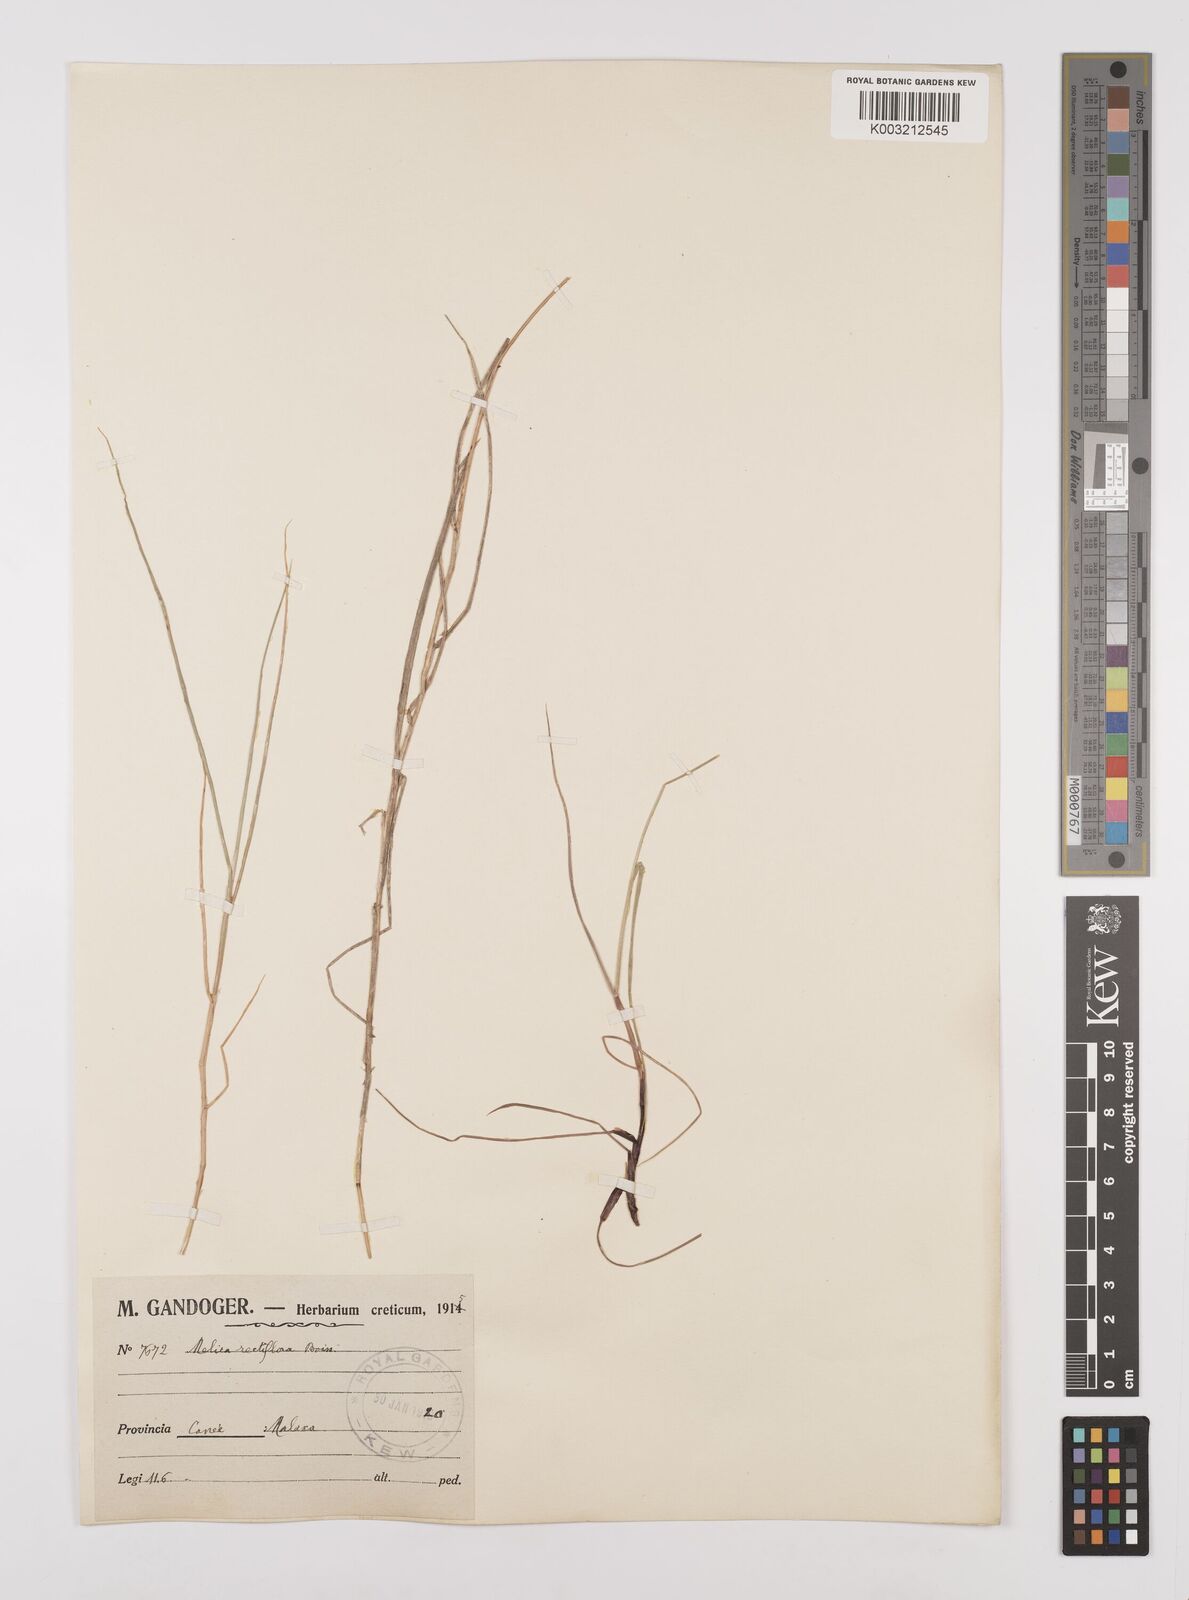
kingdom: Plantae
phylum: Tracheophyta
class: Liliopsida
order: Poales
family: Poaceae
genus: Melica
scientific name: Melica rectiflora
